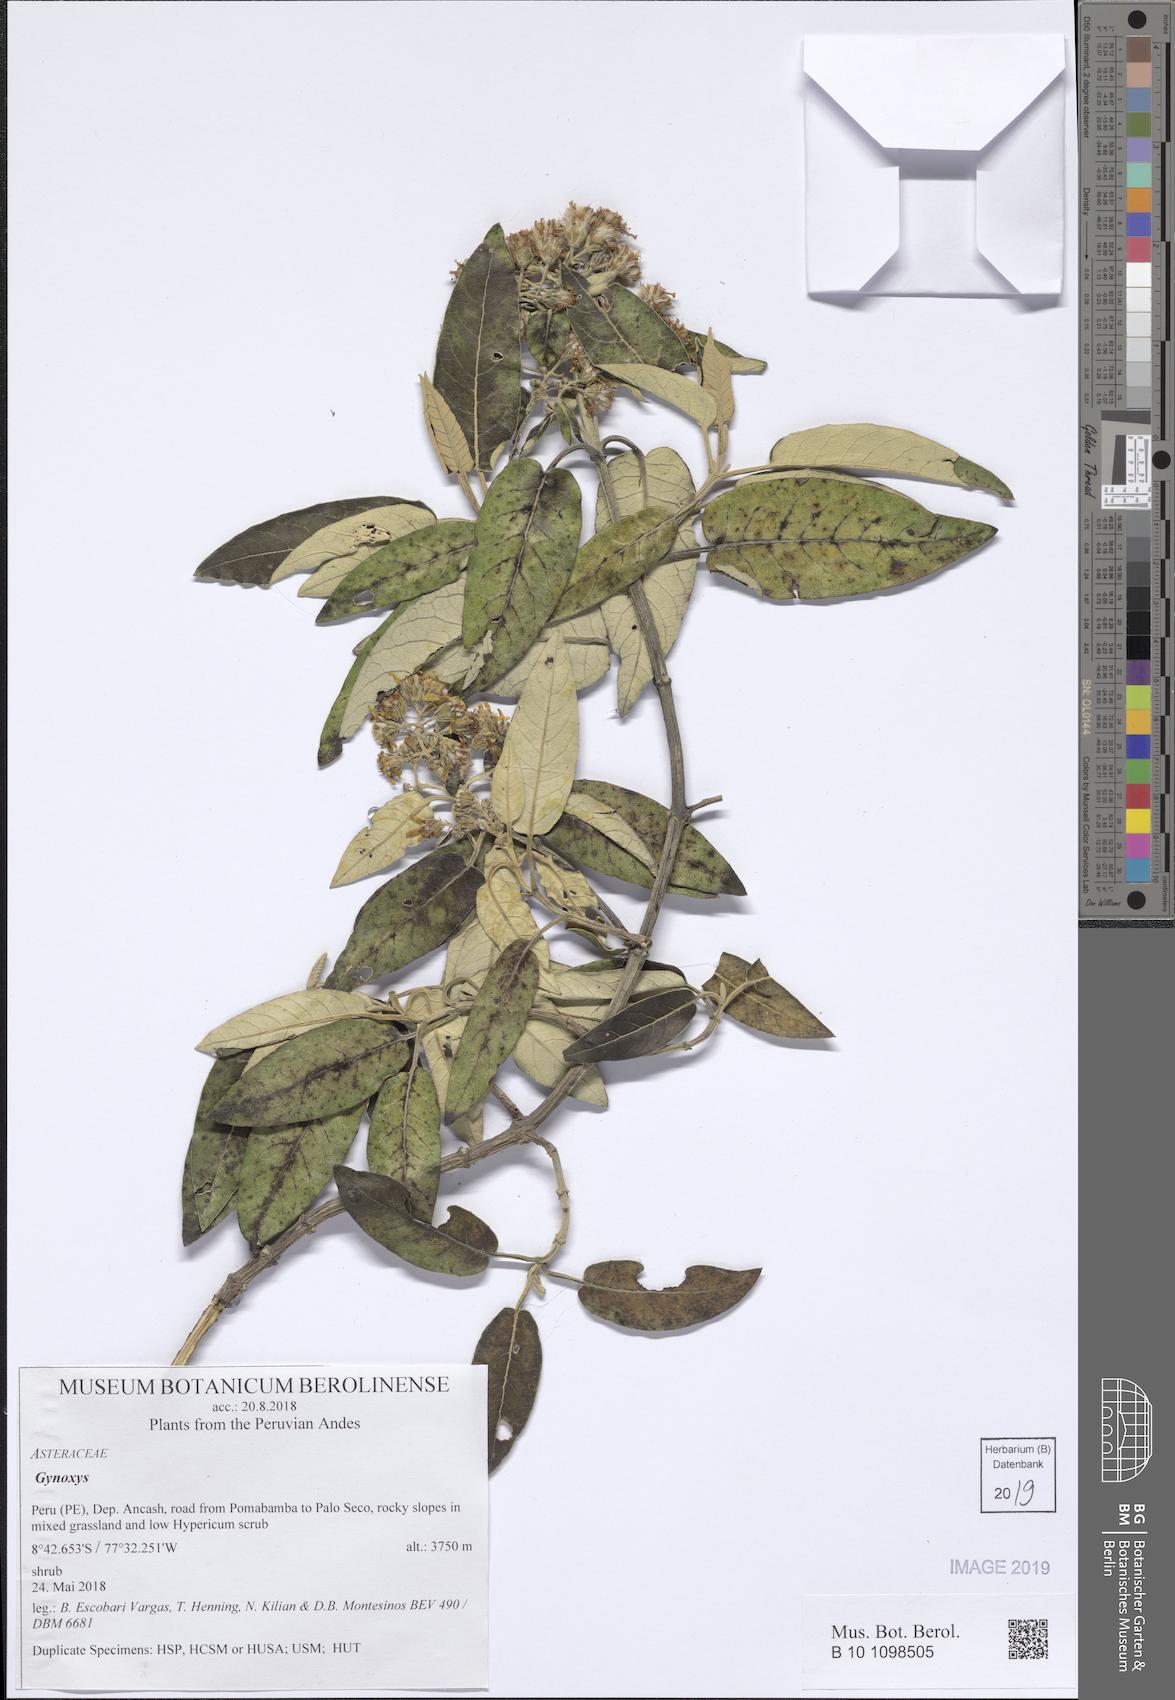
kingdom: Plantae
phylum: Tracheophyta
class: Magnoliopsida
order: Asterales
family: Asteraceae
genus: Gynoxys
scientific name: Gynoxys
